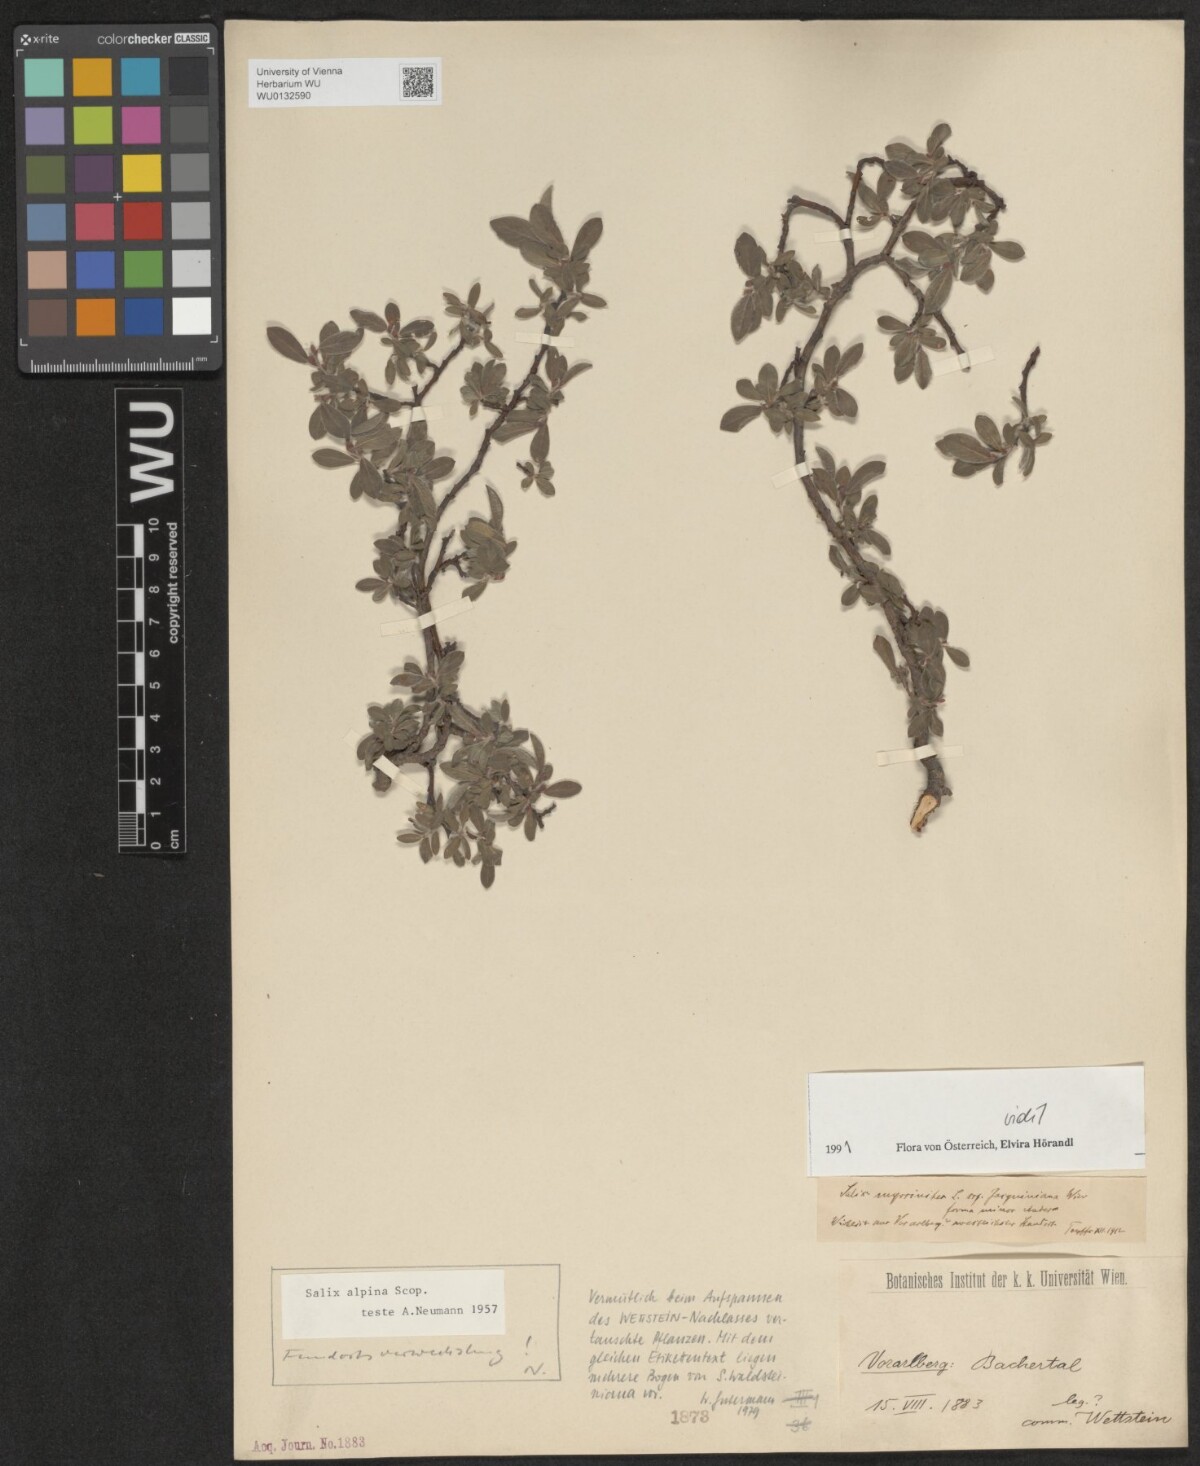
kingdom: Plantae
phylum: Tracheophyta
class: Magnoliopsida
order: Malpighiales
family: Salicaceae
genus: Salix
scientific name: Salix alpina
